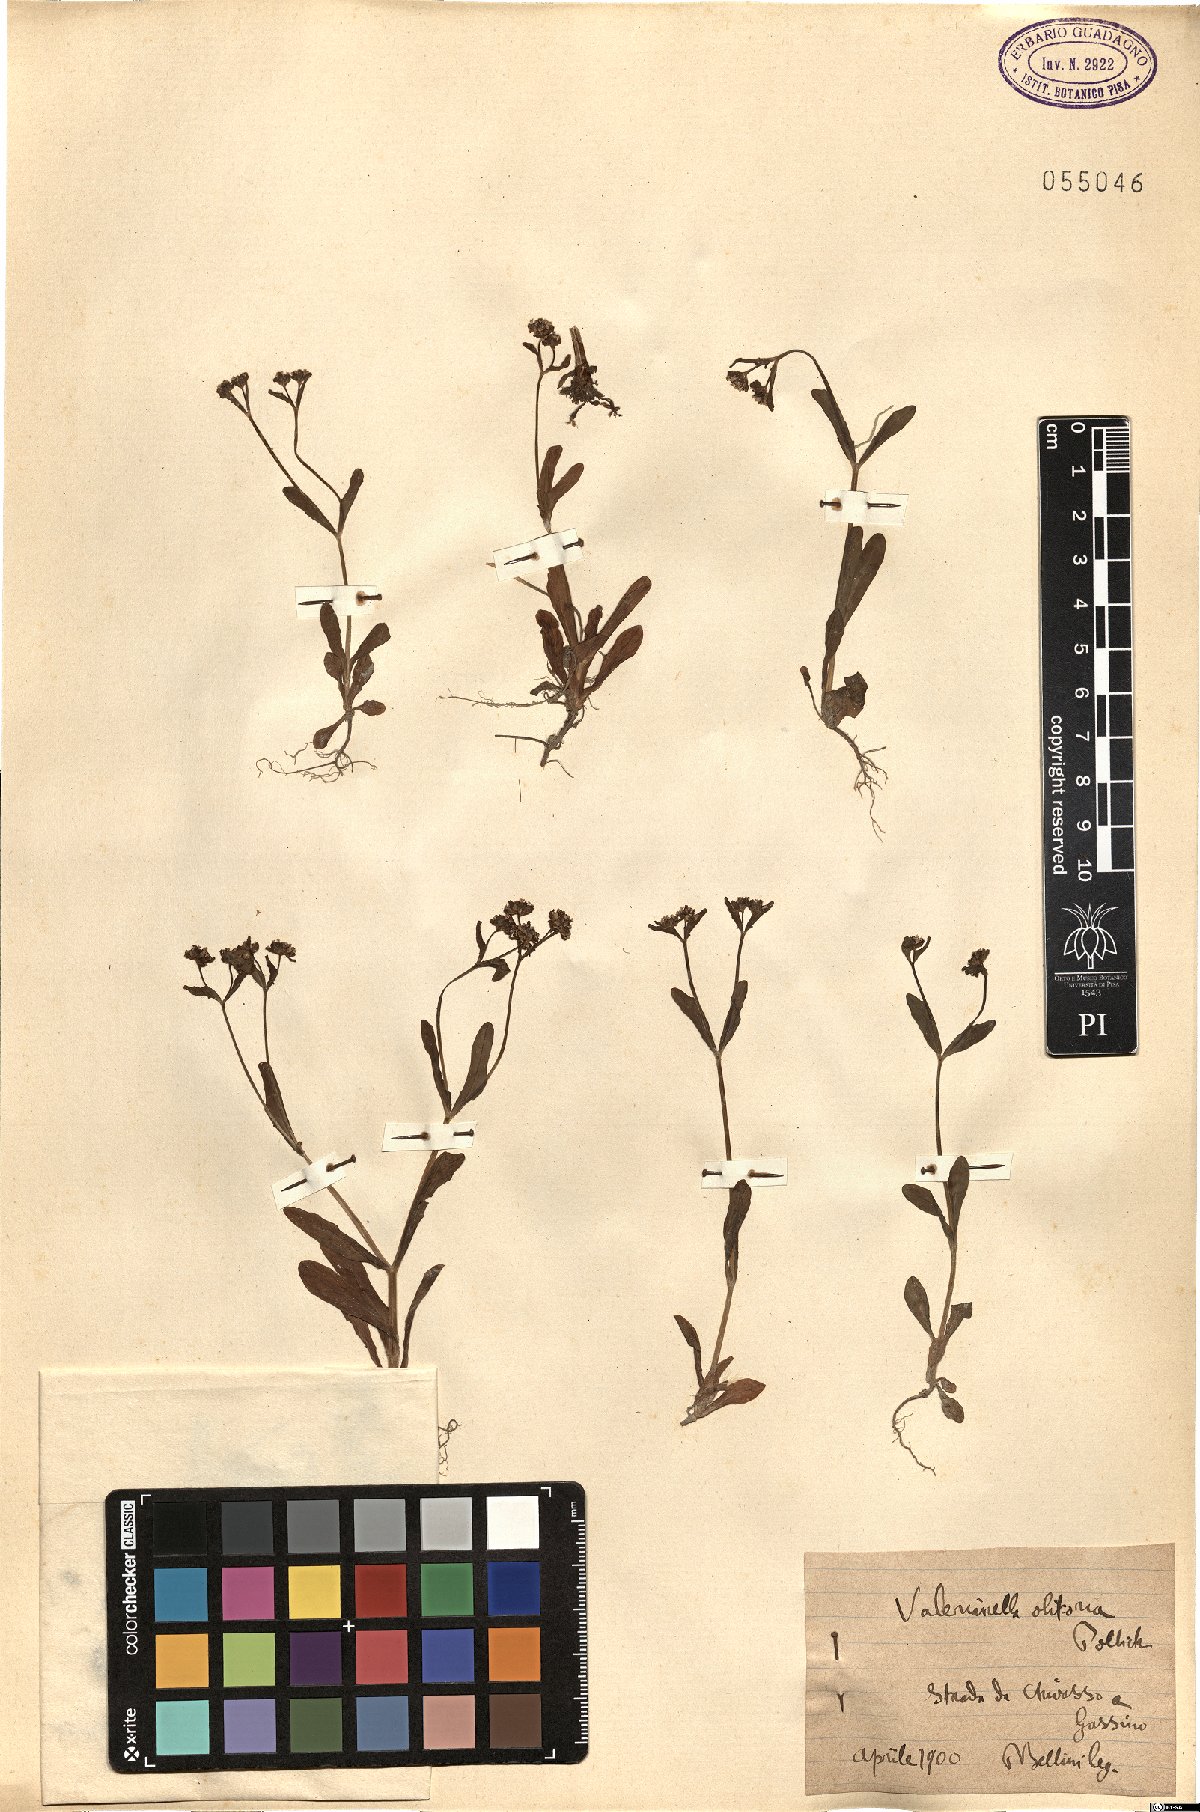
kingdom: Plantae
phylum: Tracheophyta
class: Magnoliopsida
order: Dipsacales
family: Caprifoliaceae
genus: Valerianella
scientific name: Valerianella locusta
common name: Common cornsalad
